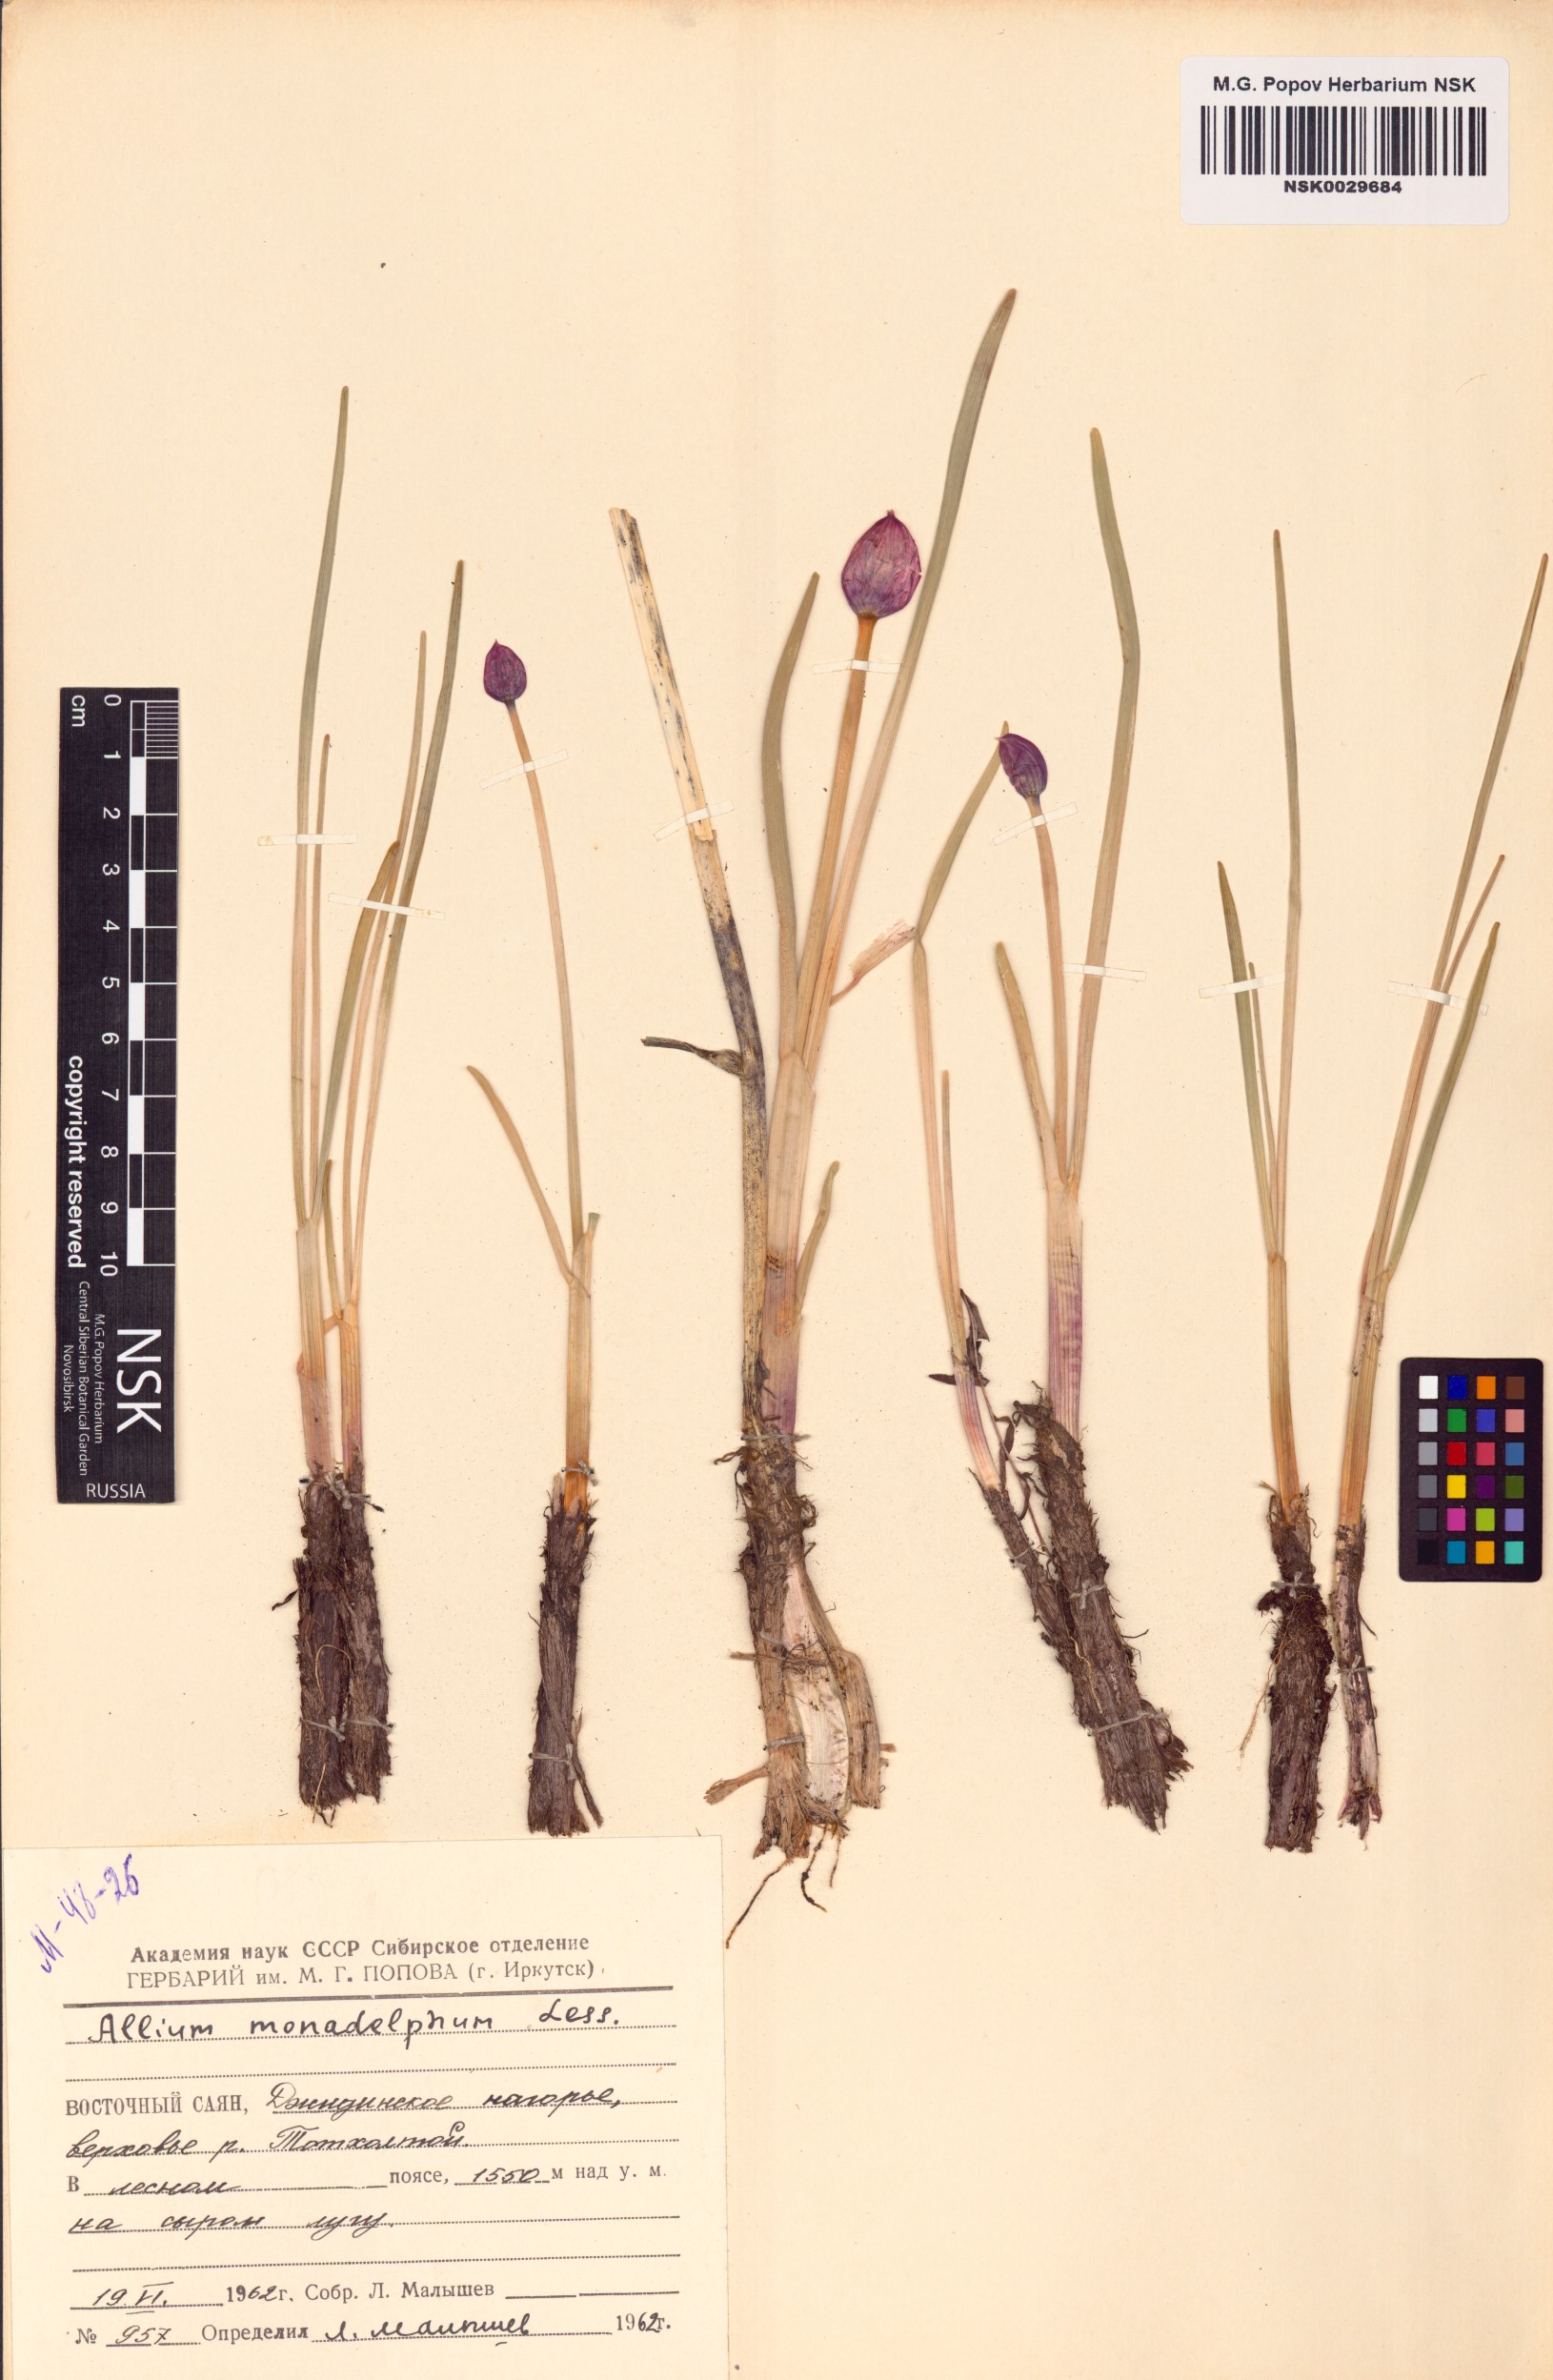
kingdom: Plantae
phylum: Tracheophyta
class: Liliopsida
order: Asparagales
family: Amaryllidaceae
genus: Allium
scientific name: Allium atrosanguineum
